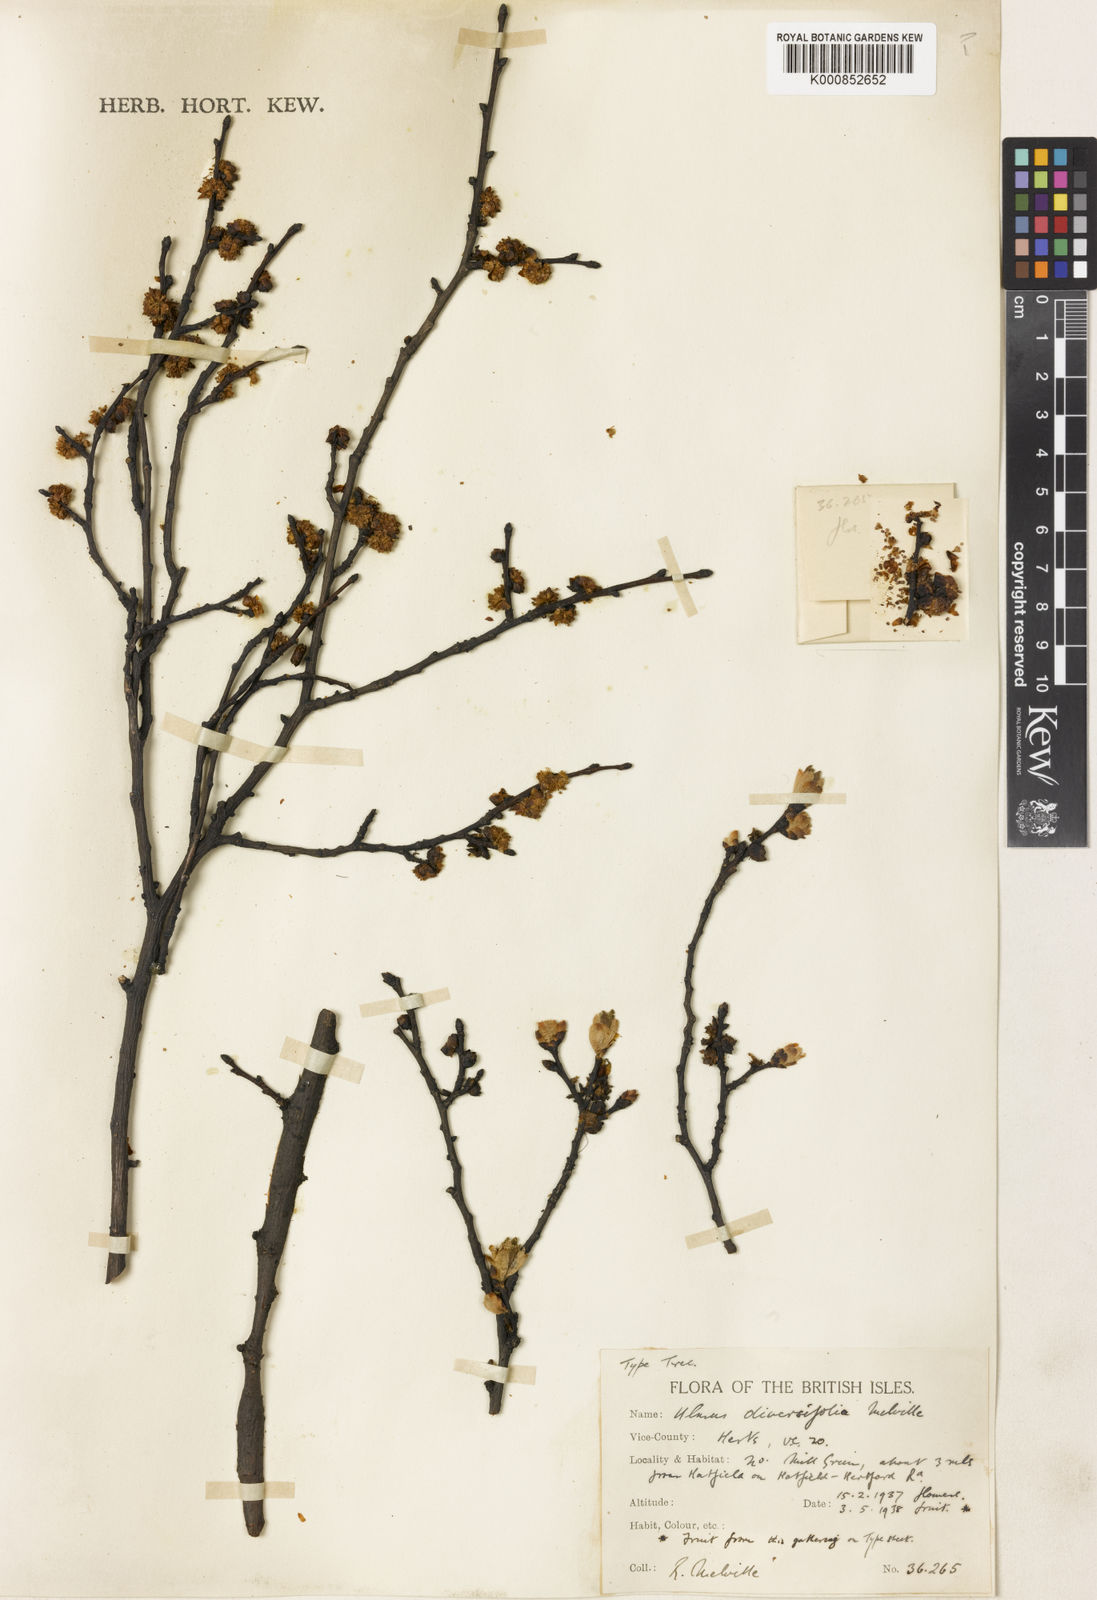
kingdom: Plantae
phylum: Tracheophyta
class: Magnoliopsida
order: Rosales
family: Ulmaceae
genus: Ulmus
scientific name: Ulmus minor
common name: Small-leaved elm
